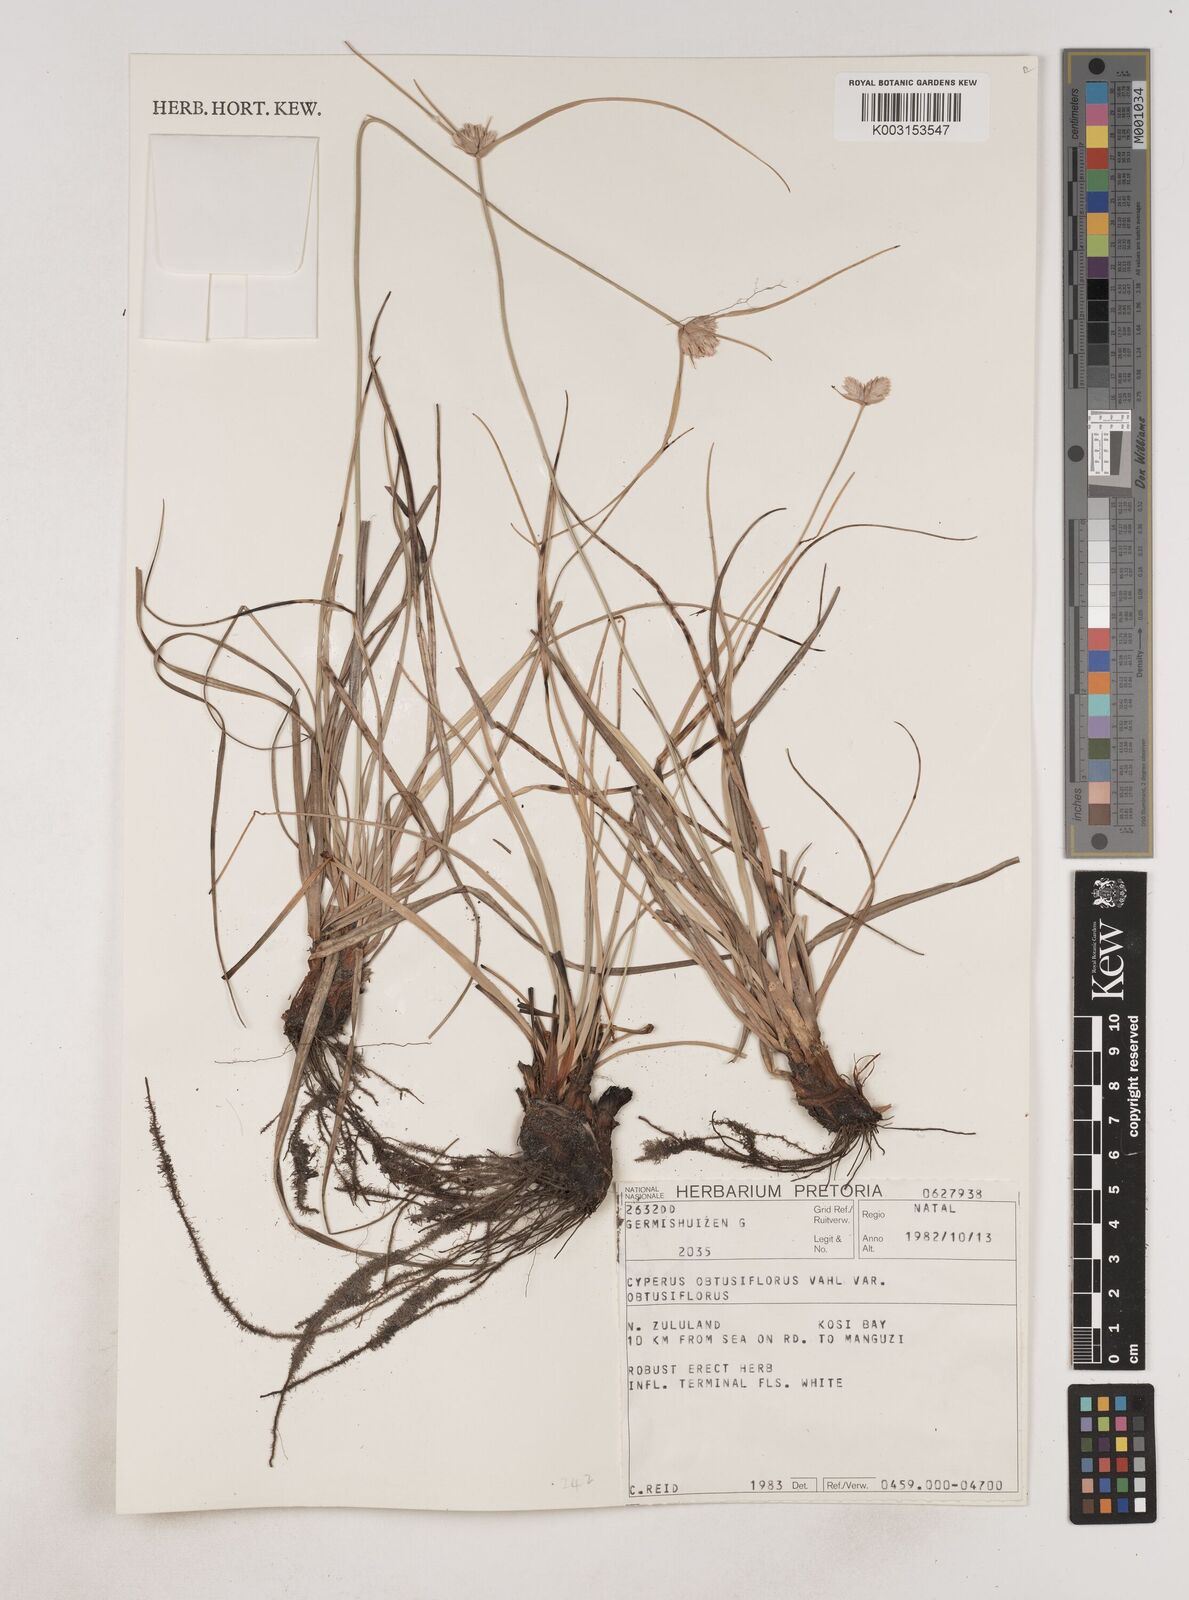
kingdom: Plantae
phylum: Tracheophyta
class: Liliopsida
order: Poales
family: Cyperaceae
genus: Cyperus
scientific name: Cyperus niveus
